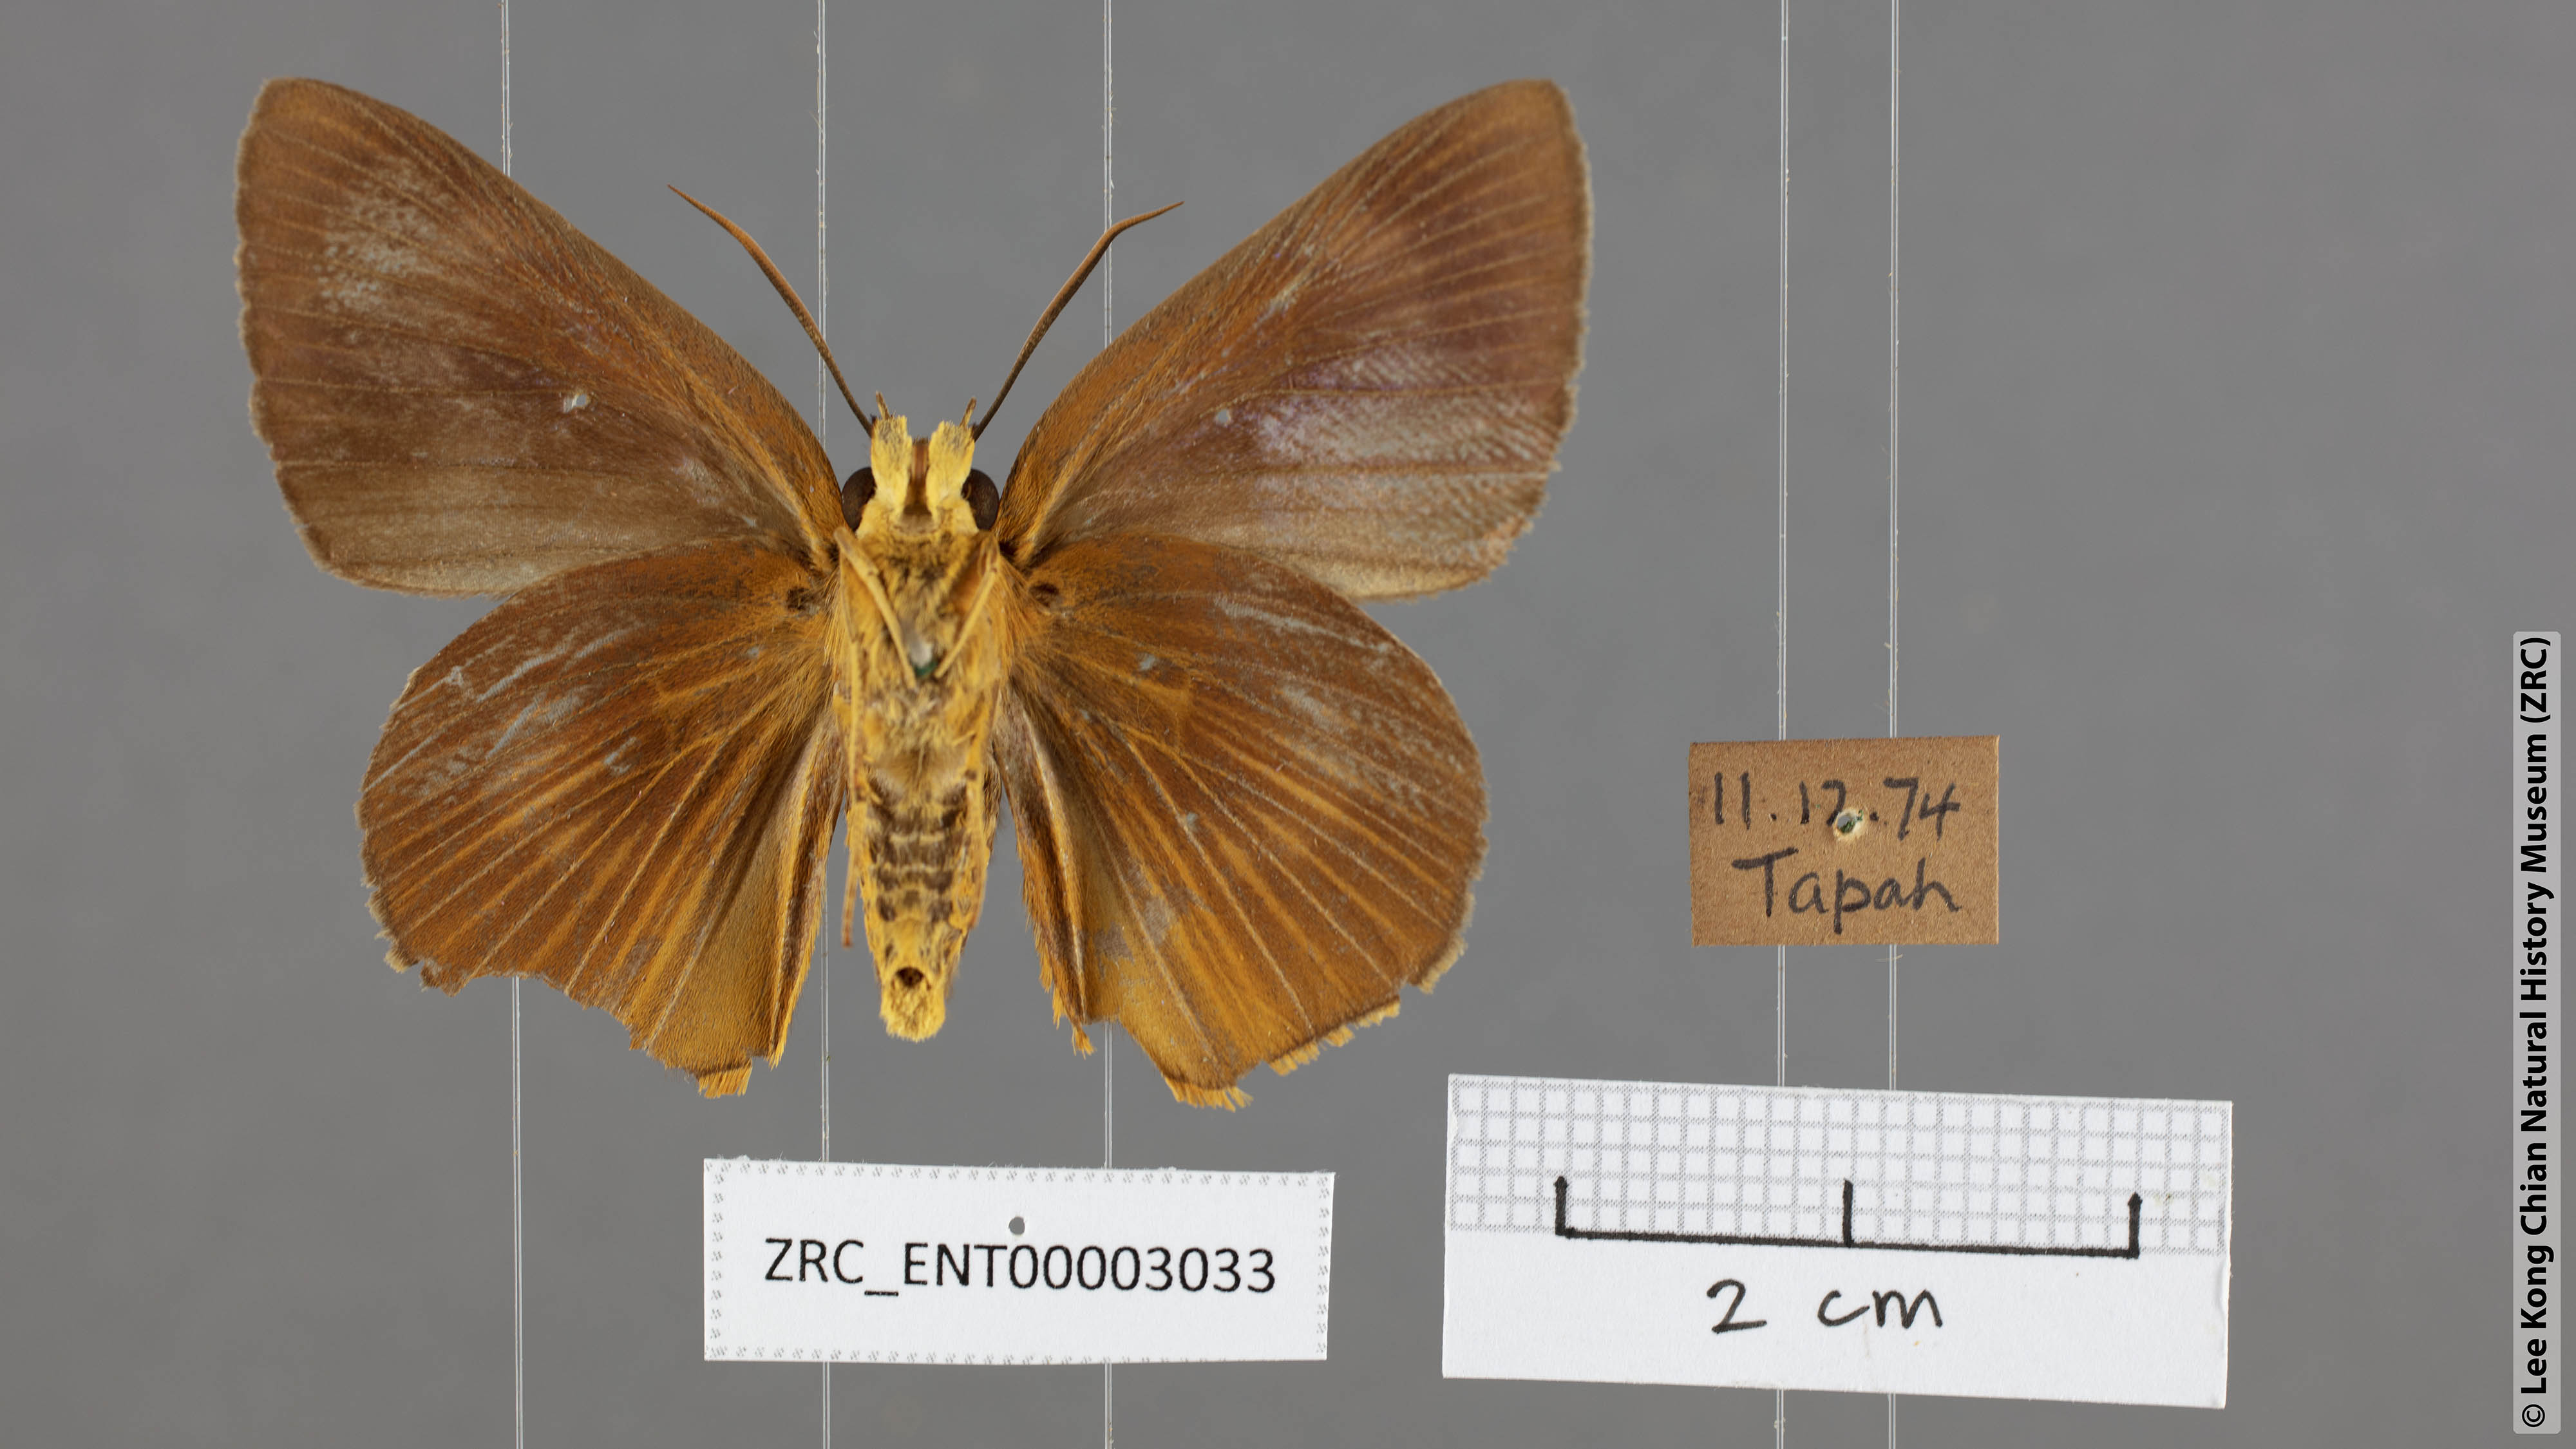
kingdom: Animalia
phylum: Arthropoda
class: Insecta
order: Lepidoptera
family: Hesperiidae
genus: Bibasis
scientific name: Bibasis Burara harisa
